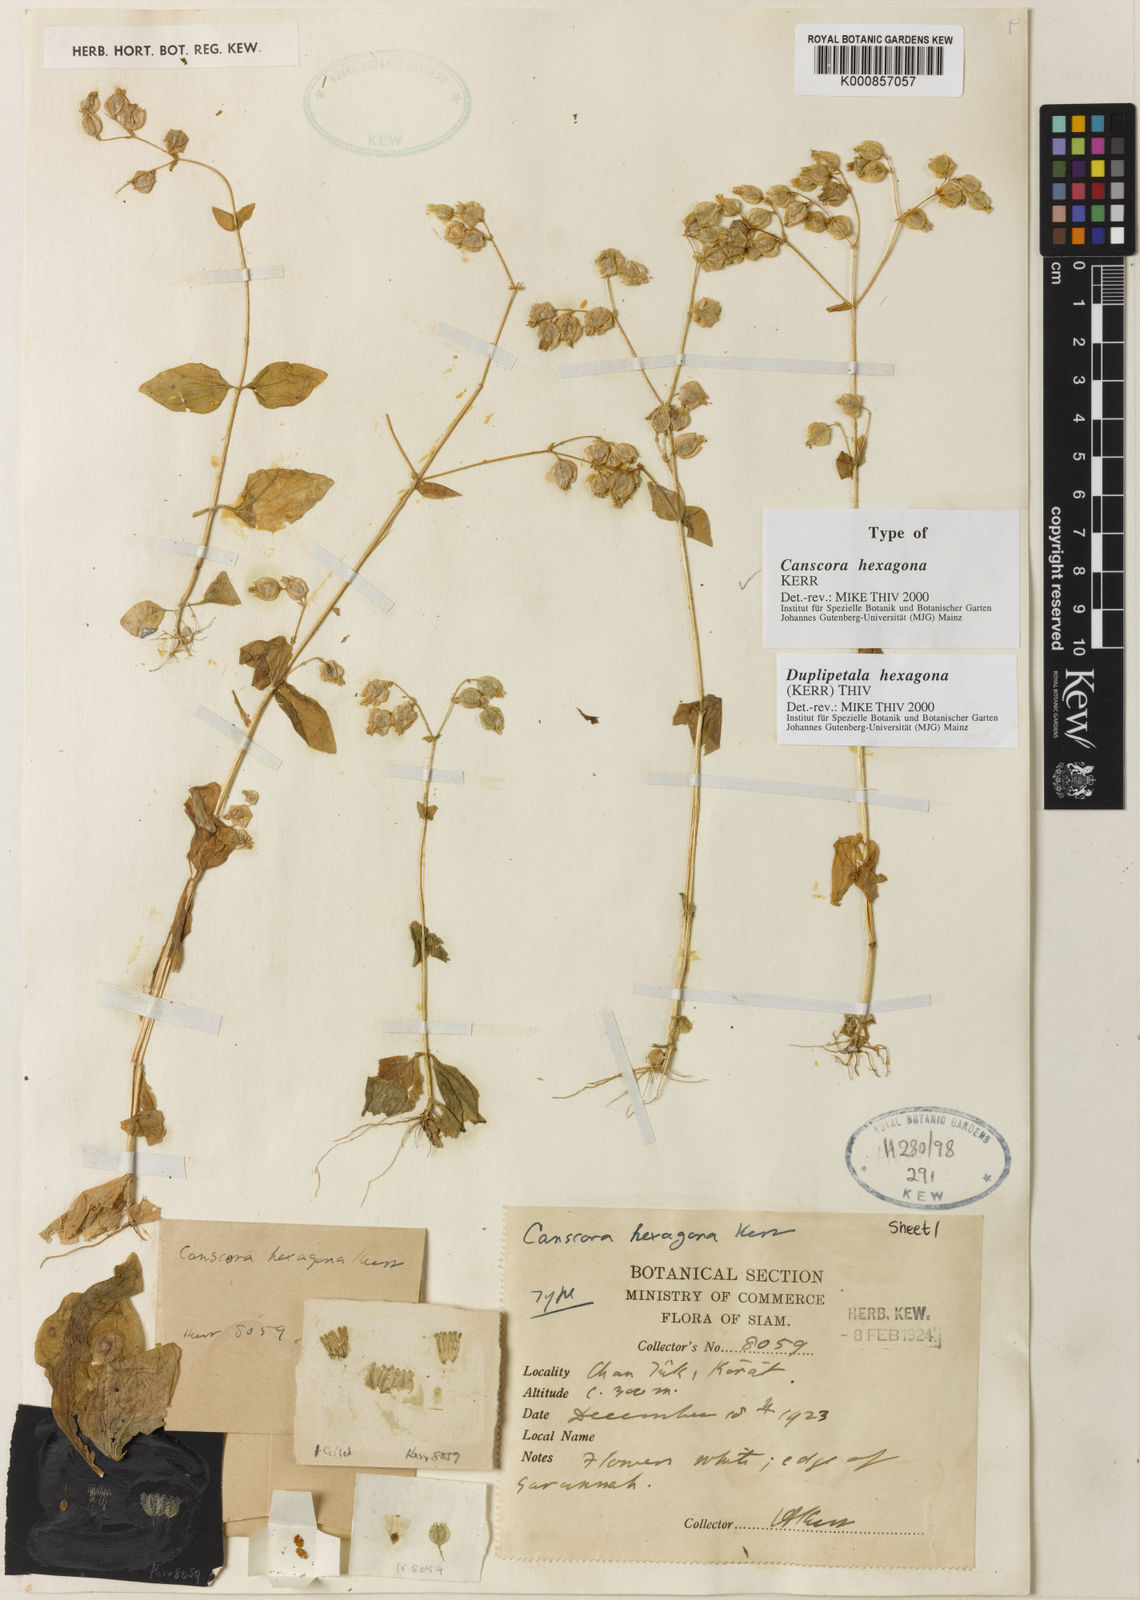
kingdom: Plantae
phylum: Tracheophyta
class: Magnoliopsida
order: Gentianales
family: Gentianaceae
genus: Duplipetala
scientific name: Duplipetala hexagona
